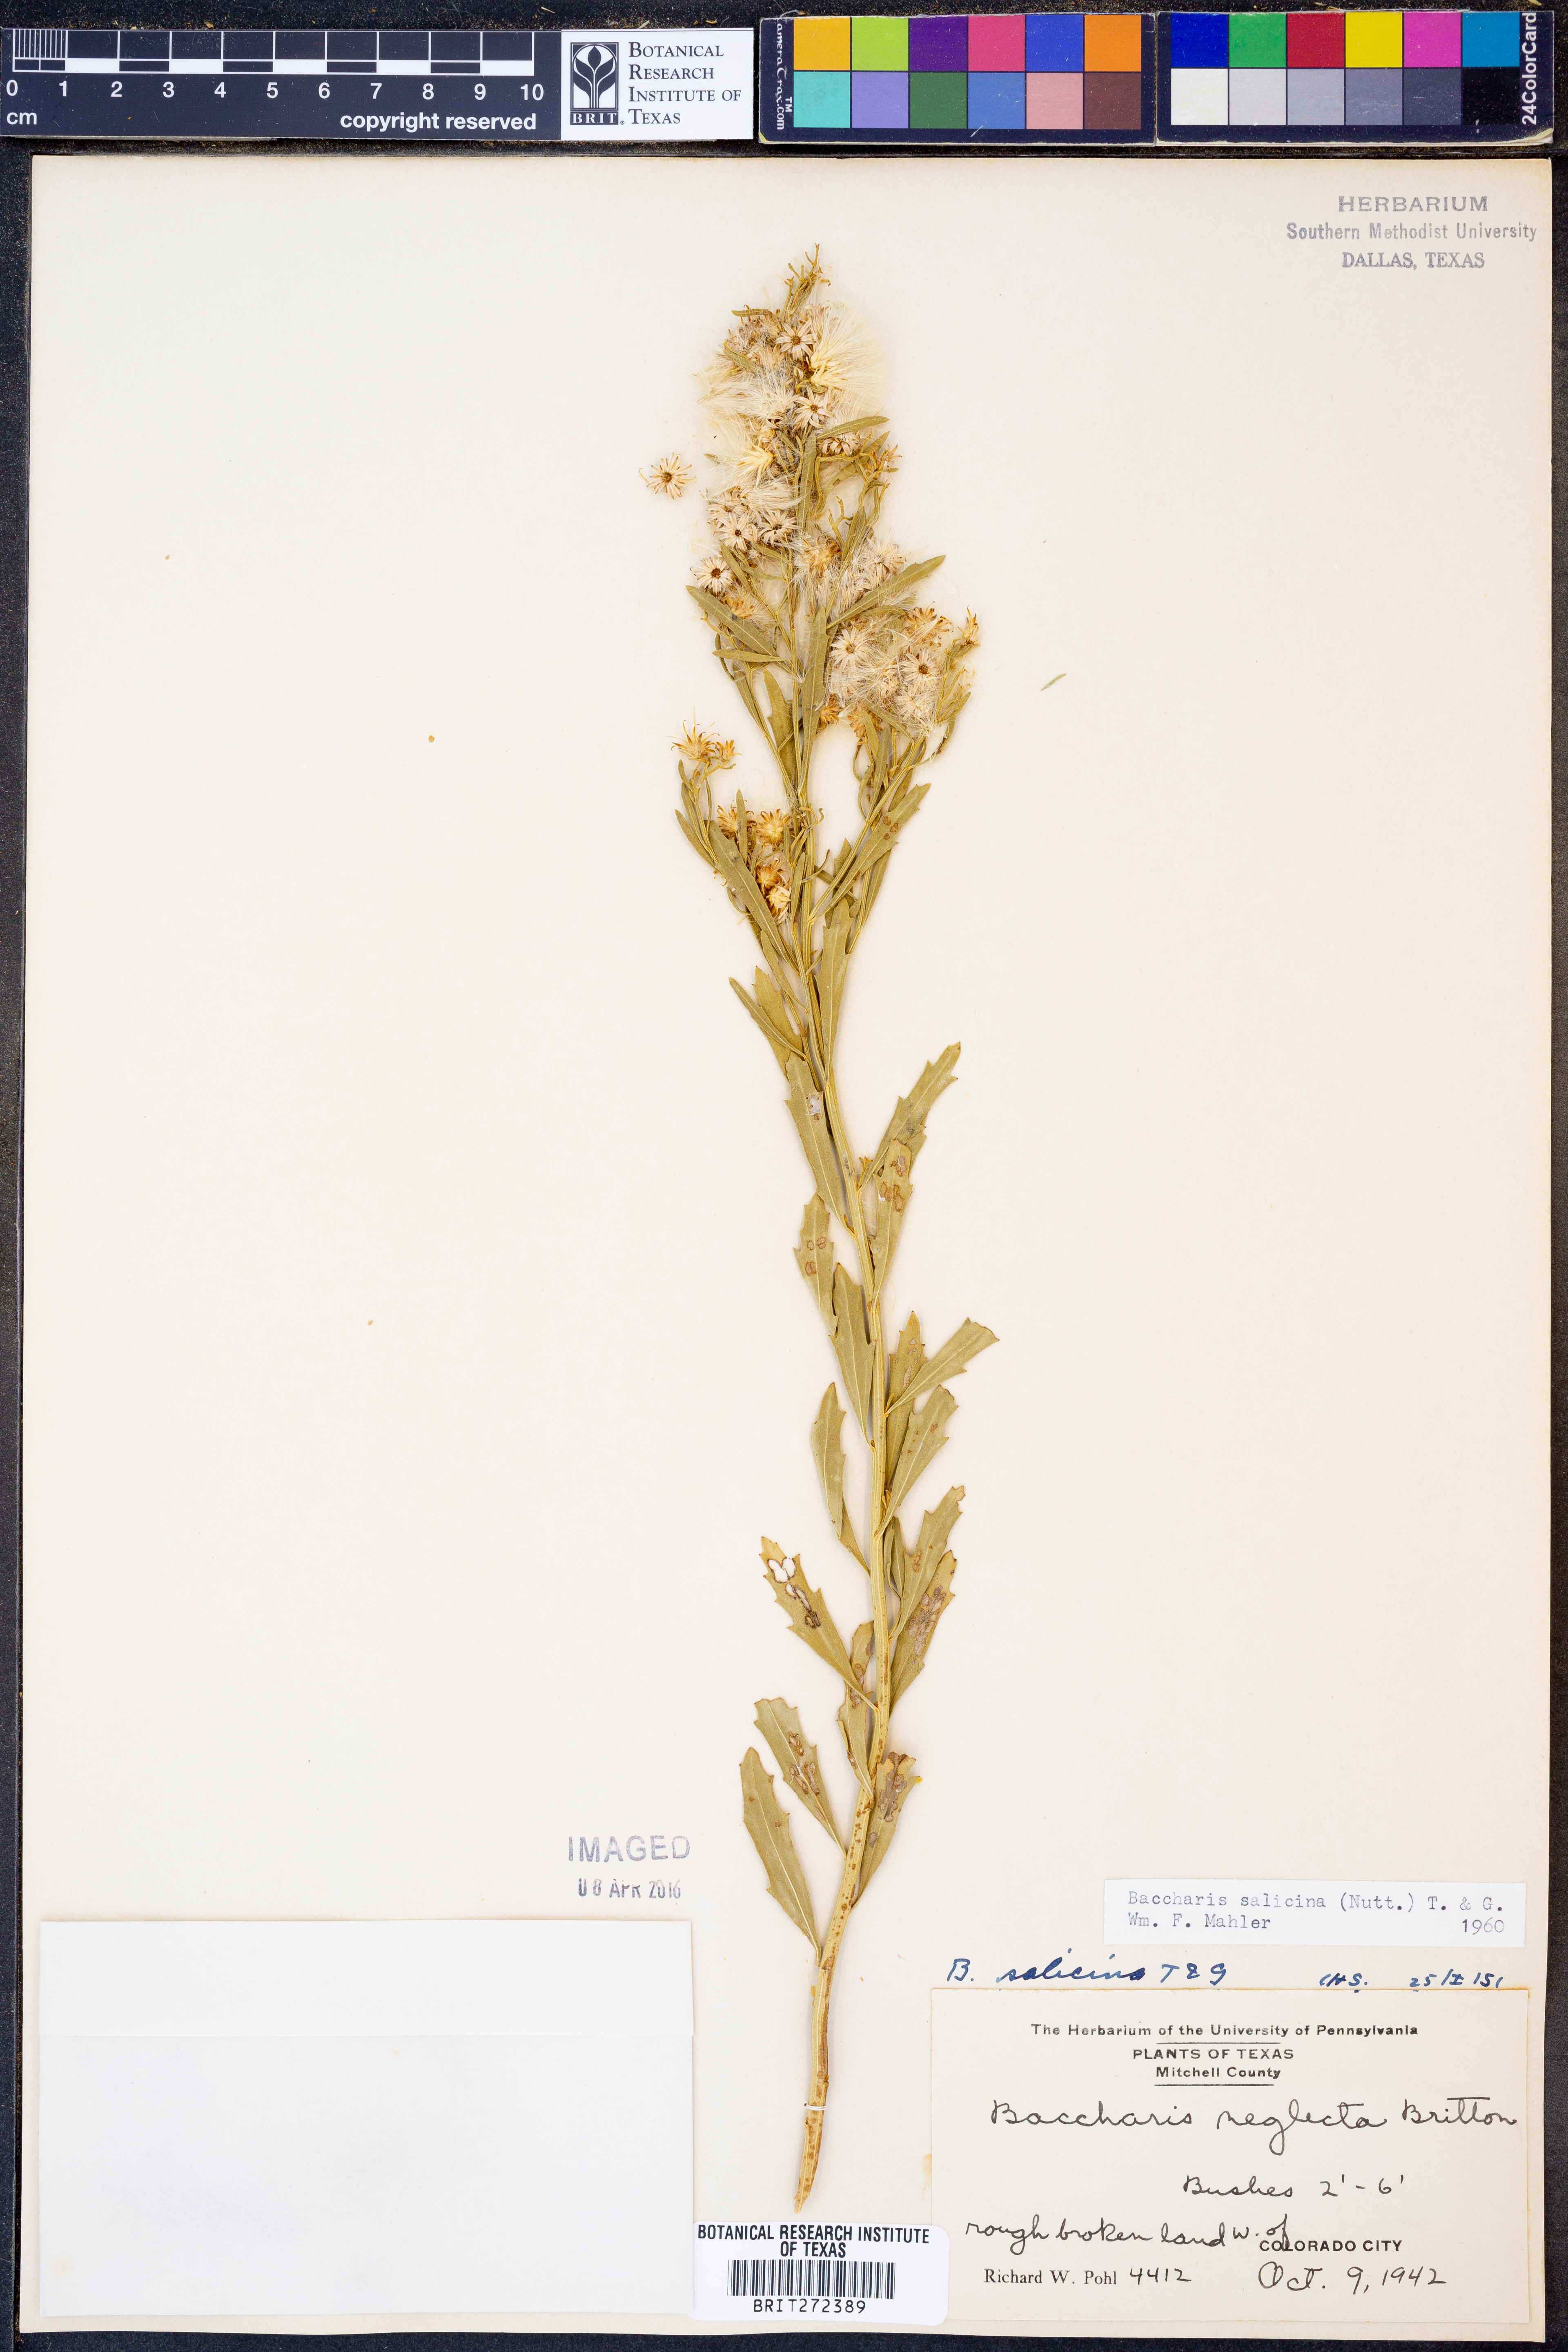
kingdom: Plantae
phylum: Tracheophyta
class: Magnoliopsida
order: Asterales
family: Asteraceae
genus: Baccharis
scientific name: Baccharis salicina
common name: Willow baccharis
